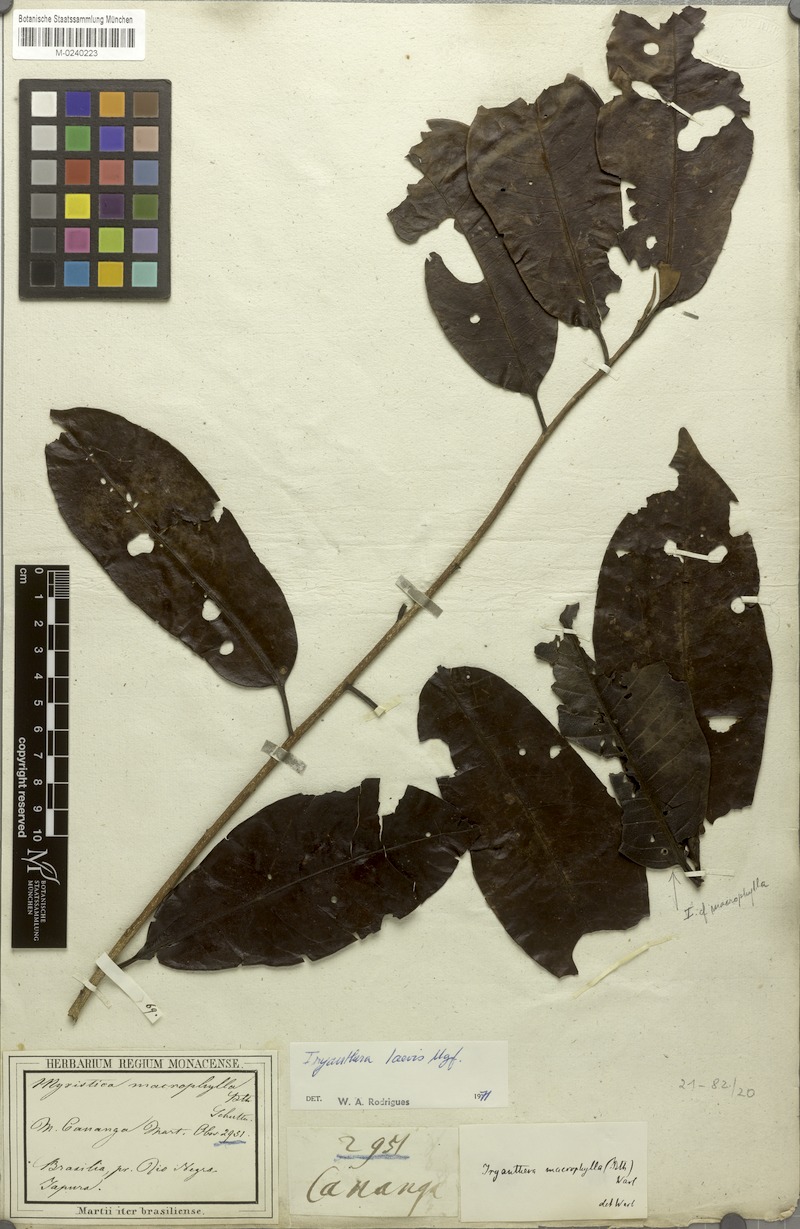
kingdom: Plantae
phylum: Tracheophyta
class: Magnoliopsida
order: Magnoliales
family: Myristicaceae
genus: Iryanthera
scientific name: Iryanthera laevis
